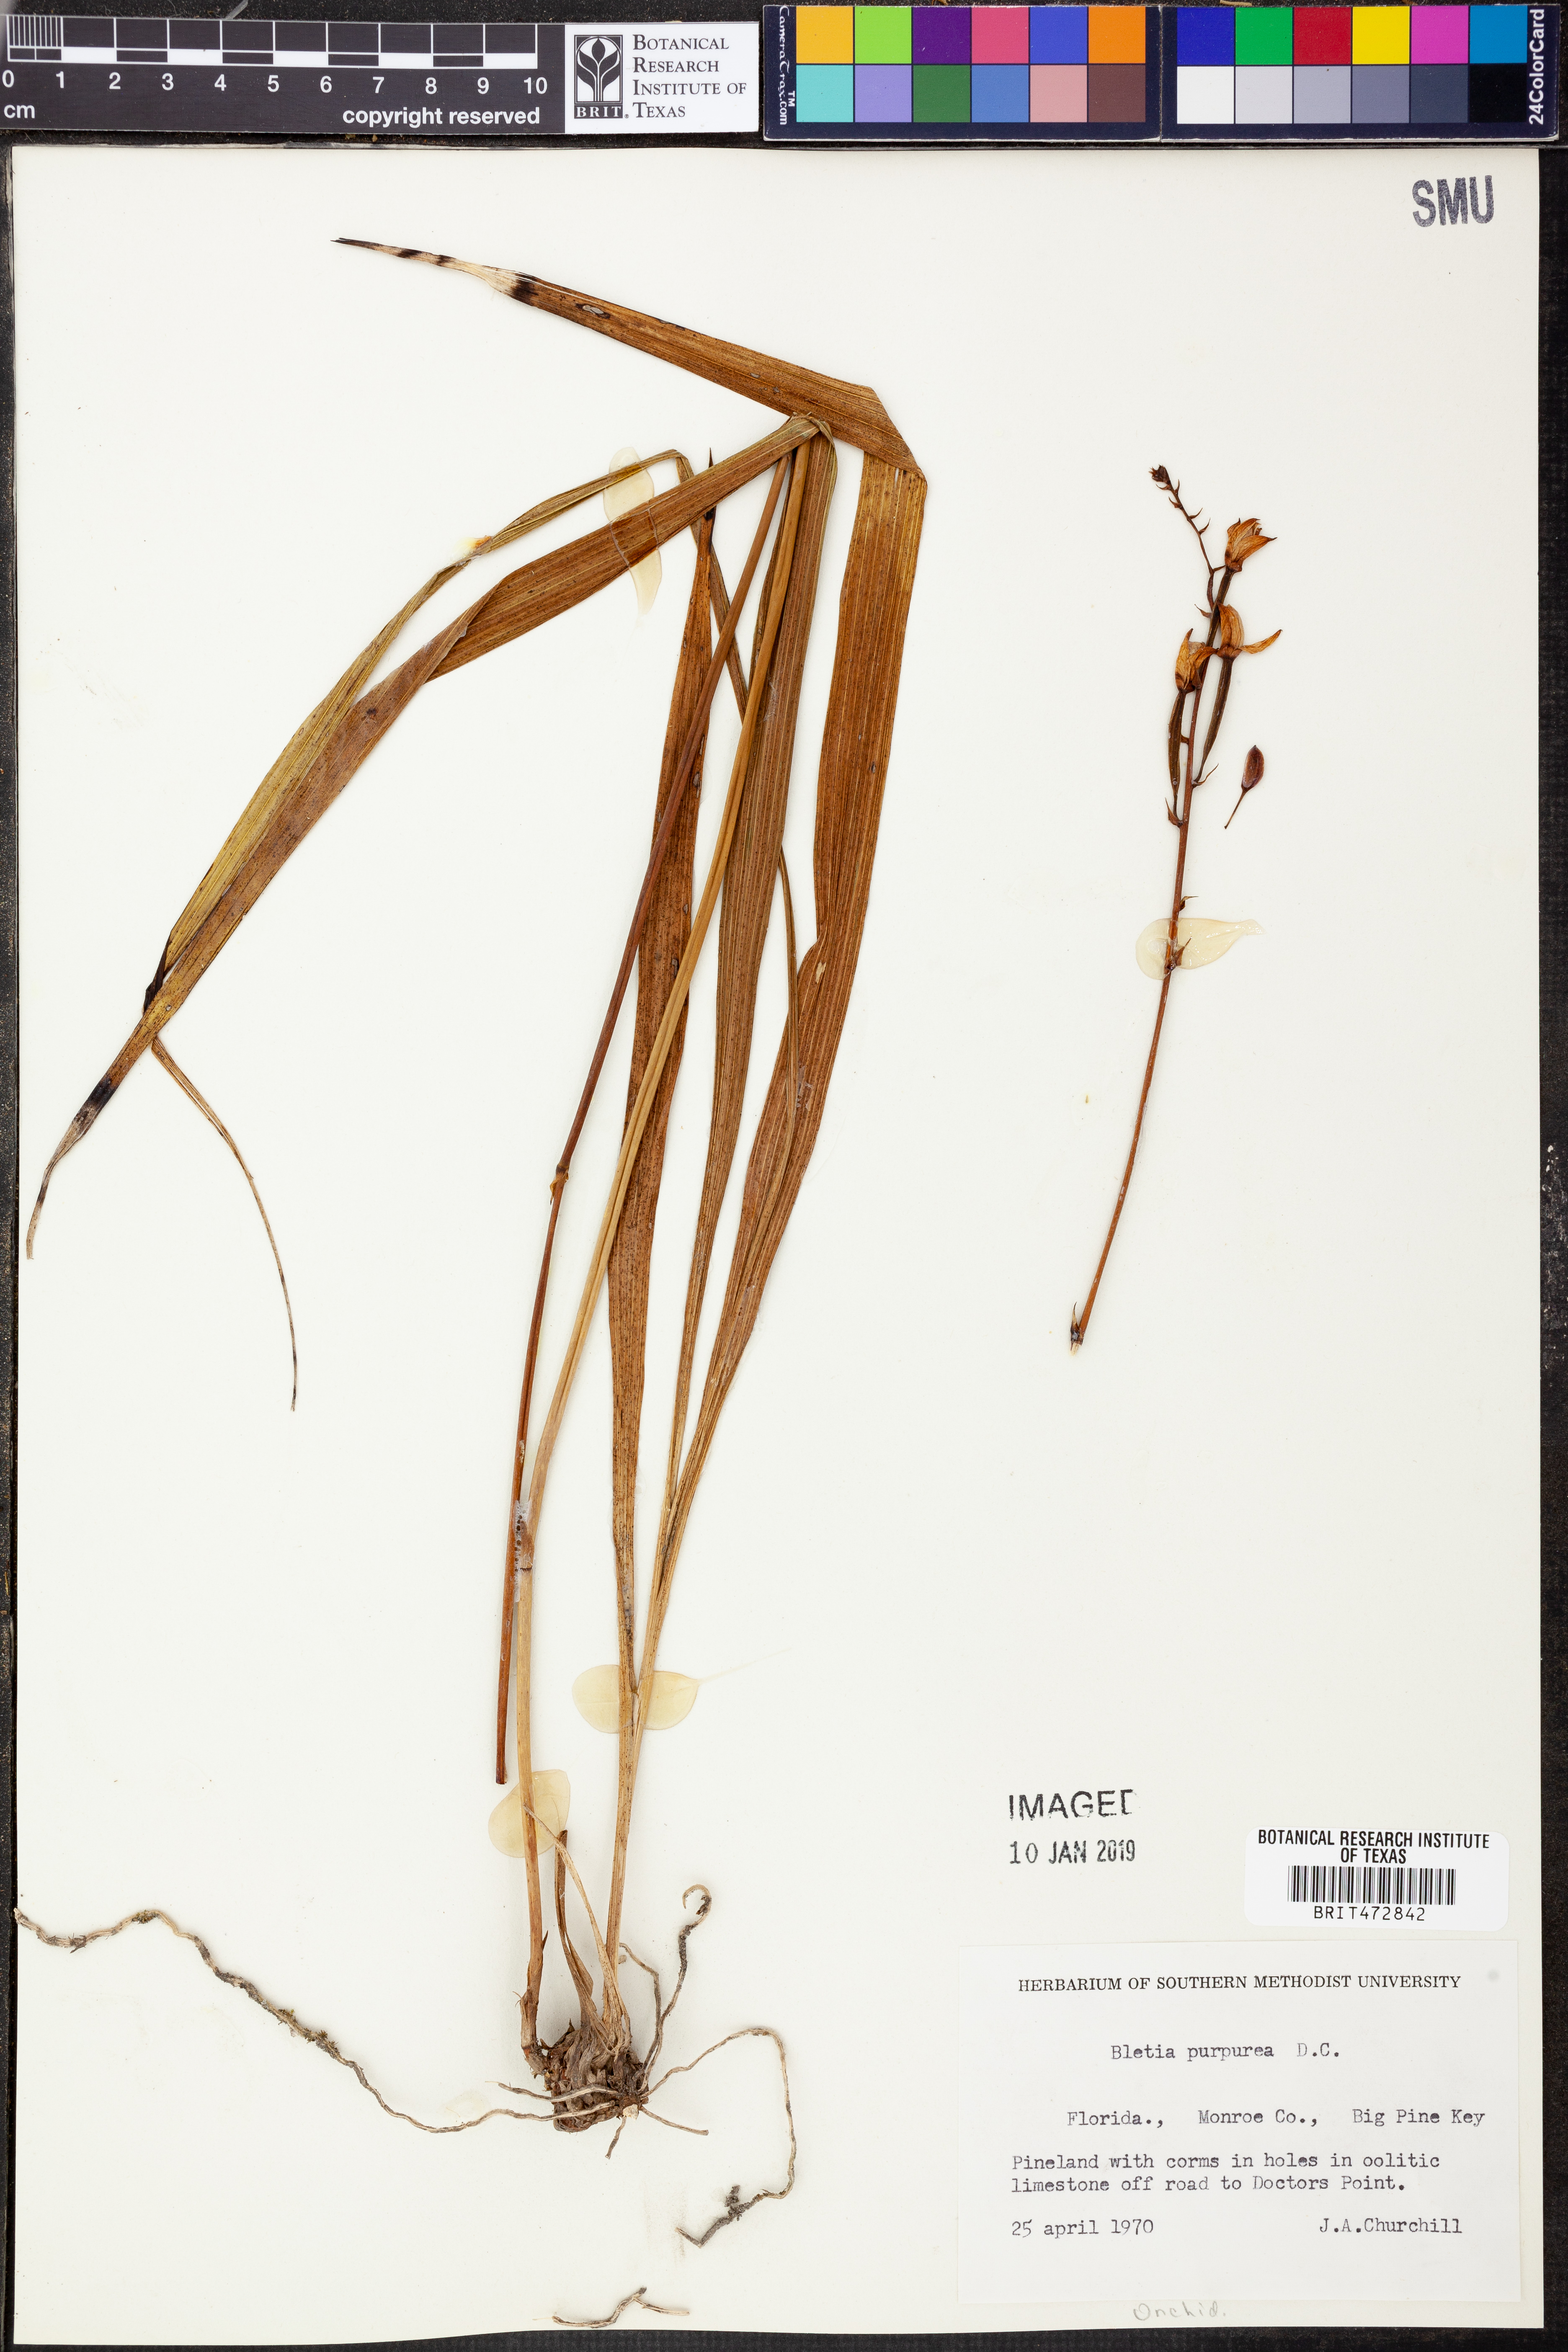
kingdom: Plantae
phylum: Tracheophyta
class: Liliopsida
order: Asparagales
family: Orchidaceae
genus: Bletia
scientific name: Bletia purpurea
